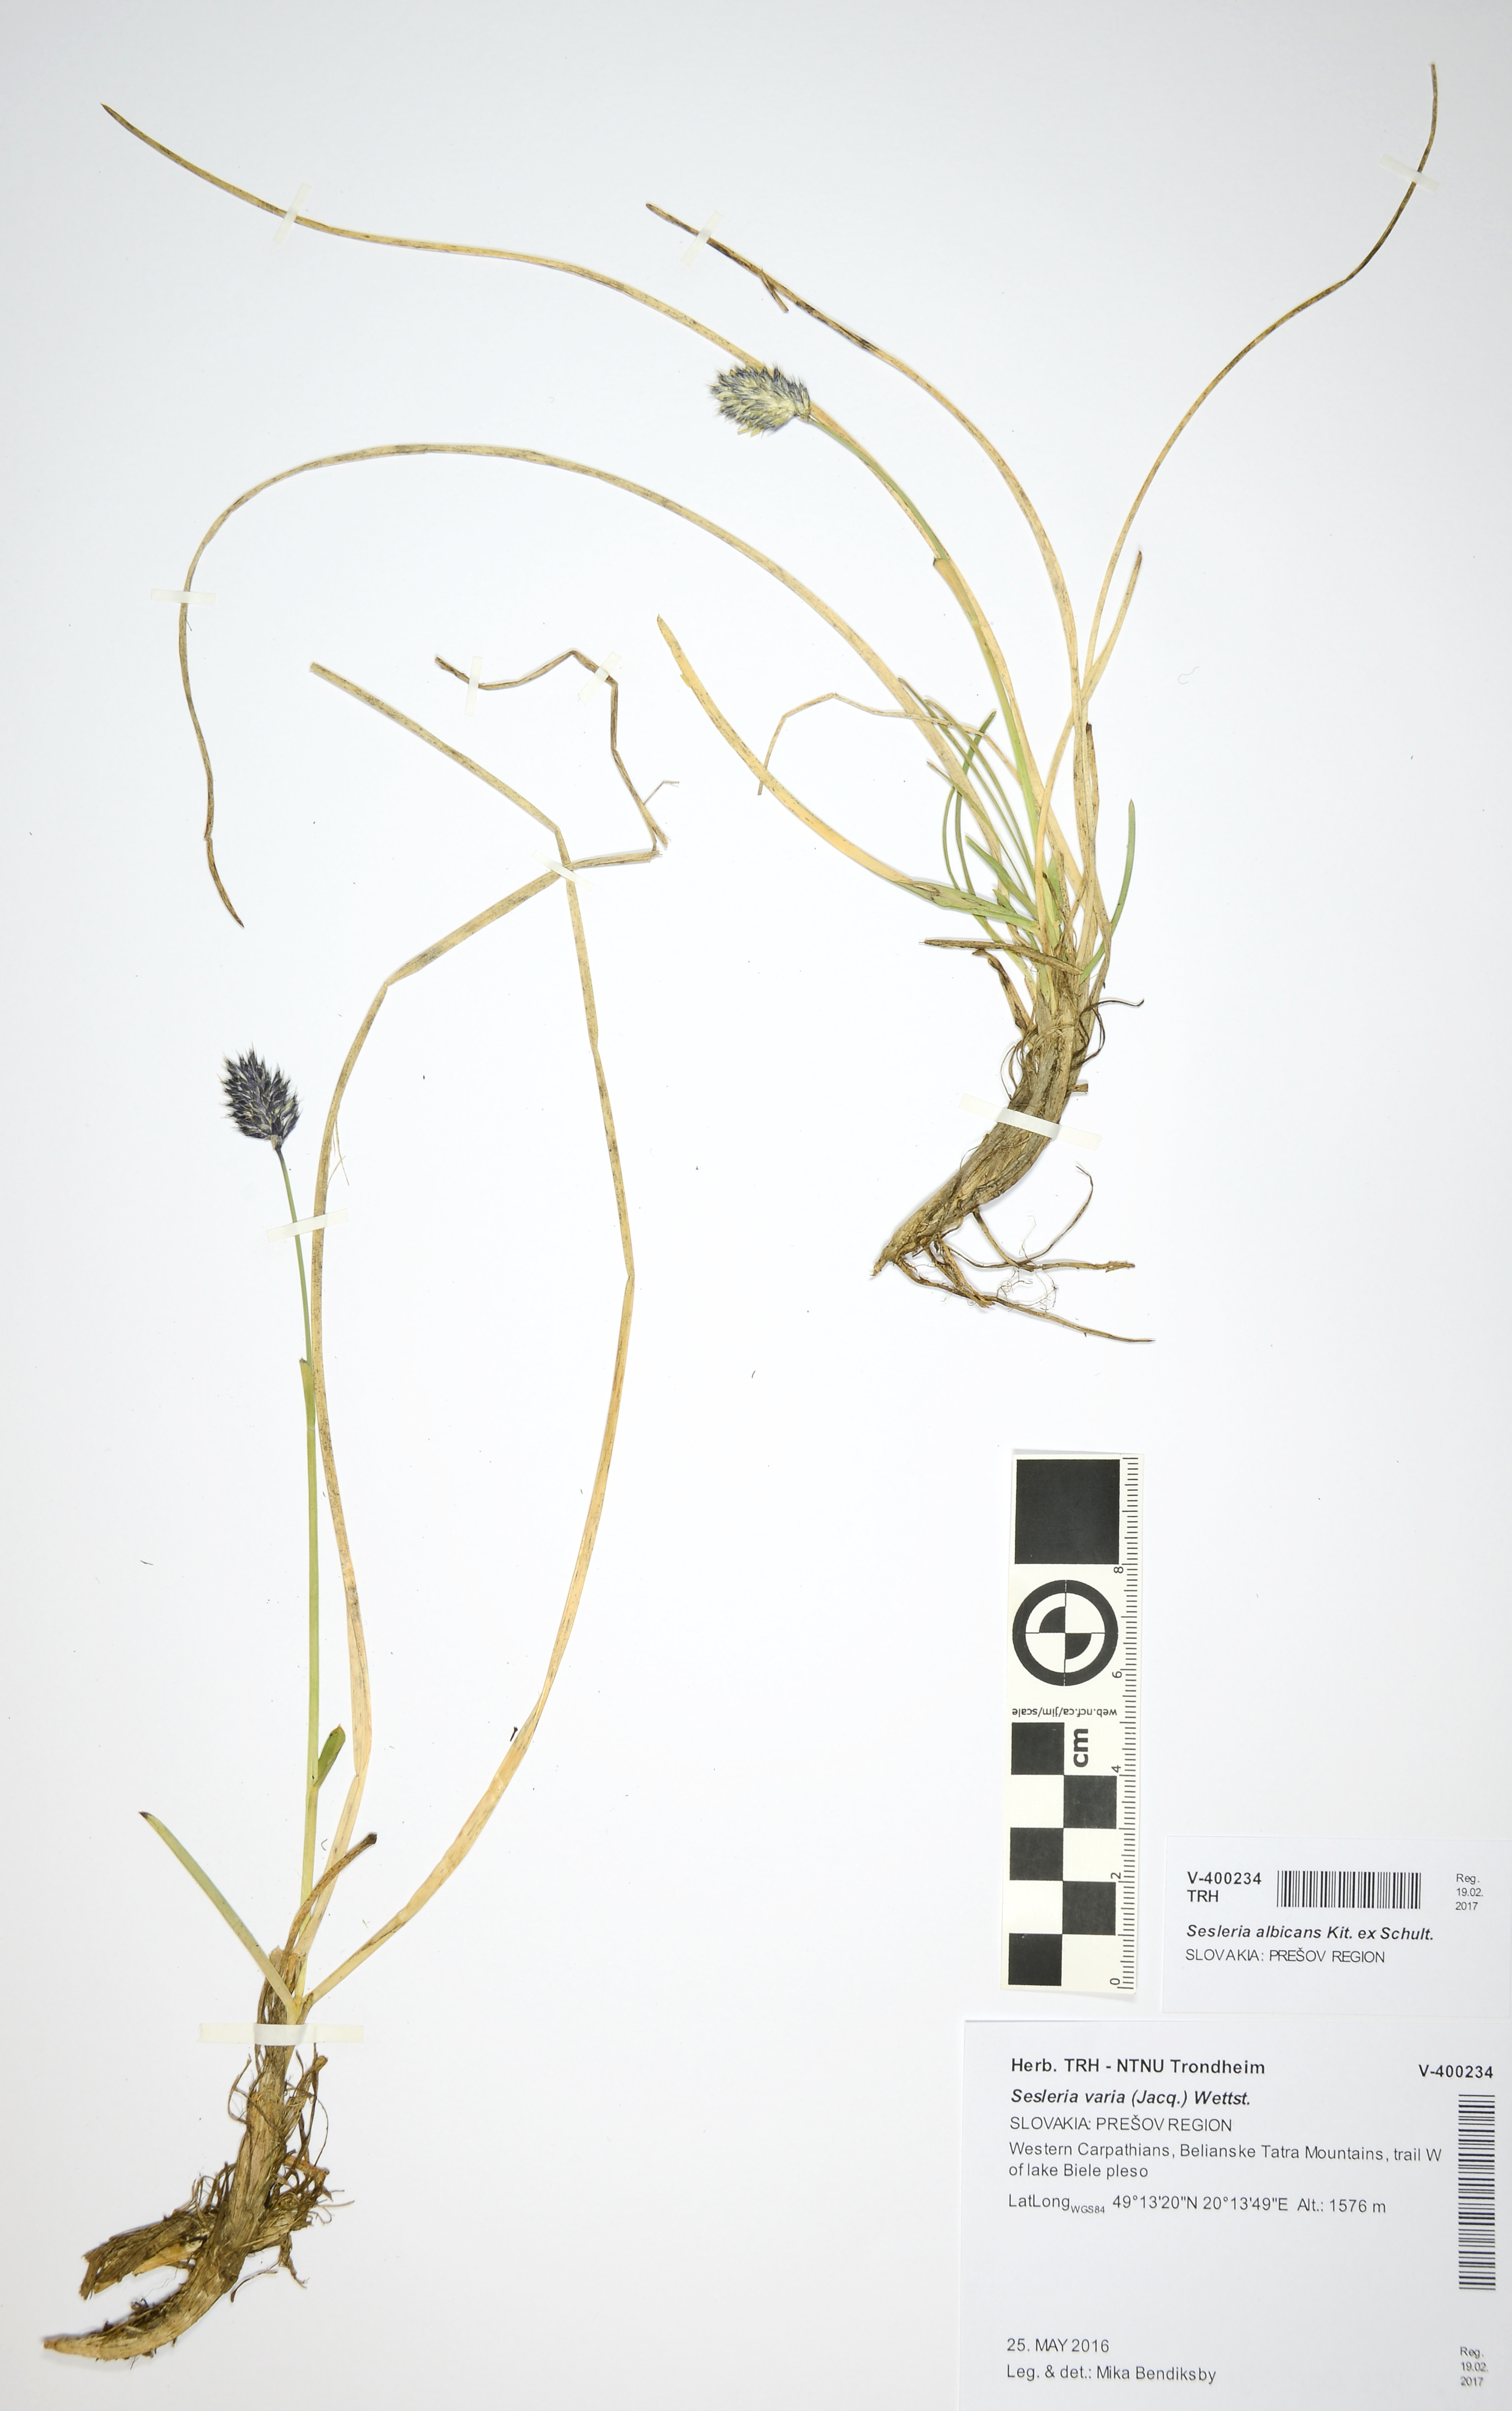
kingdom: Plantae
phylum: Tracheophyta
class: Liliopsida
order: Poales
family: Poaceae
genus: Sesleria
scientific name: Sesleria caerulea
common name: Blue moor-grass
